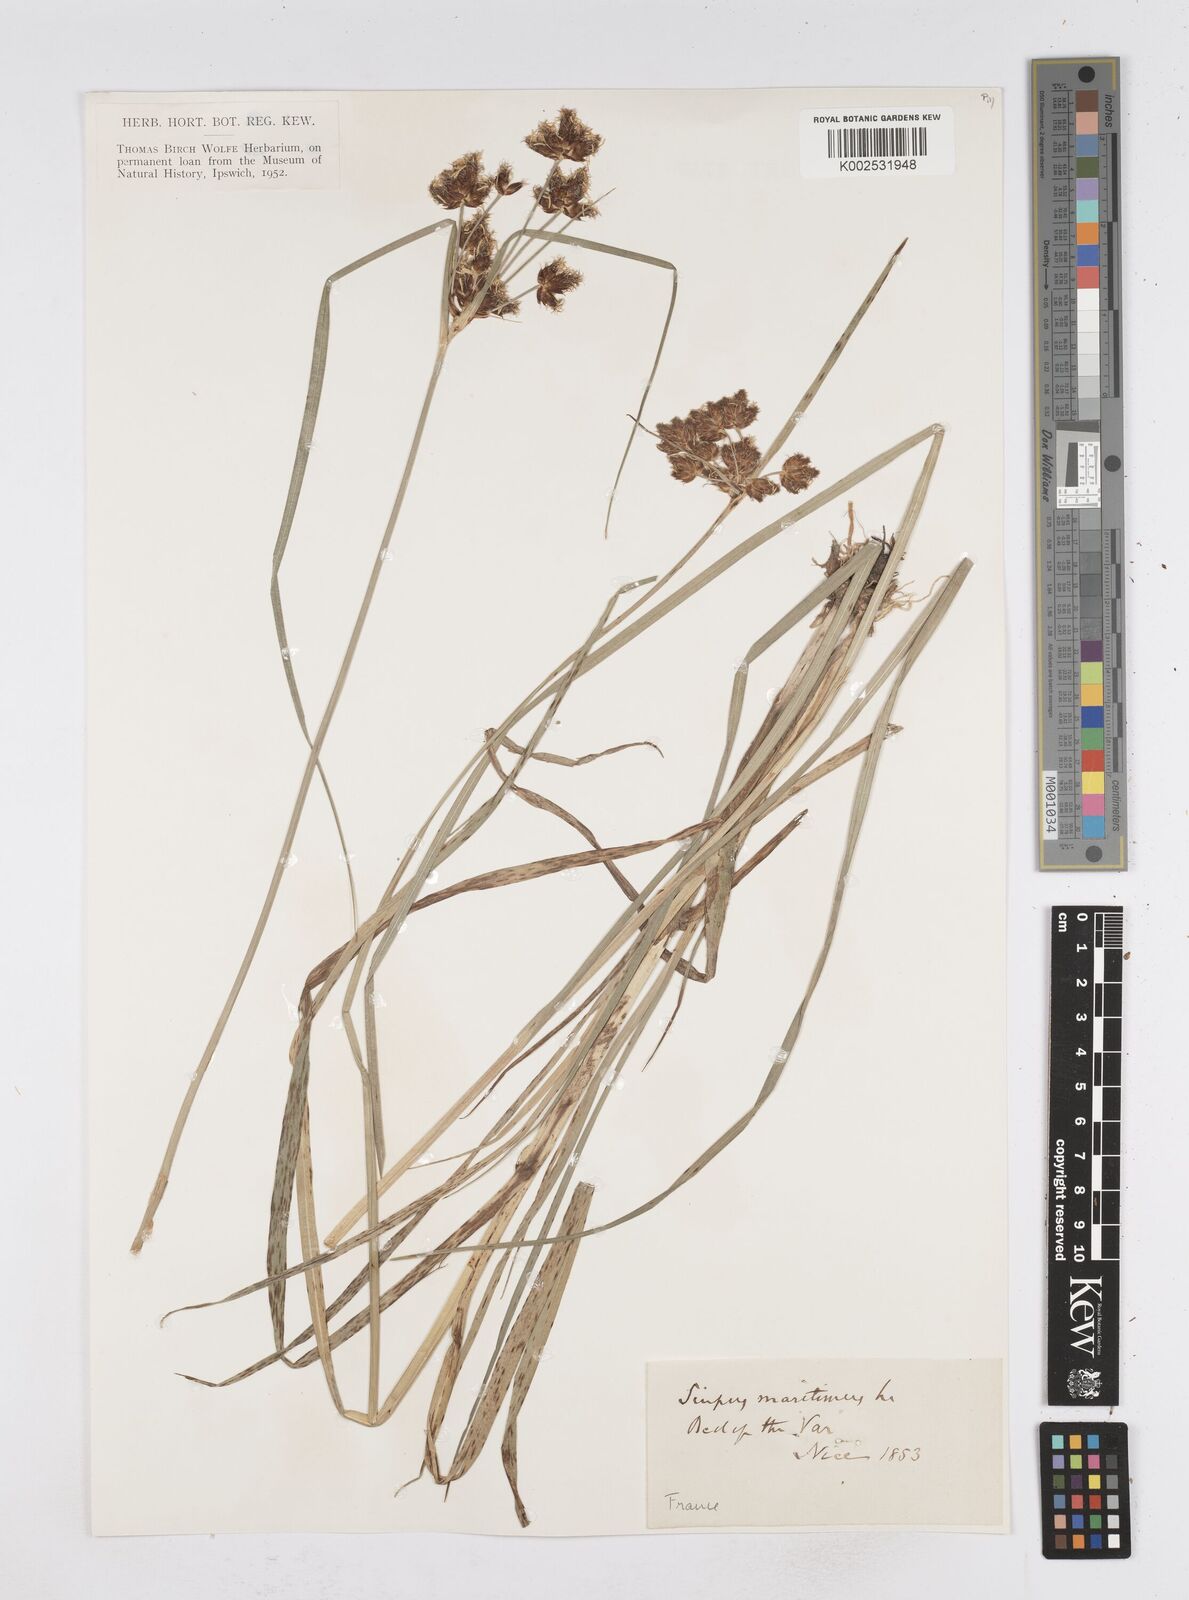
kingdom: Plantae
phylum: Tracheophyta
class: Liliopsida
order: Poales
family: Cyperaceae
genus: Bolboschoenus
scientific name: Bolboschoenus maritimus
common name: Sea club-rush
